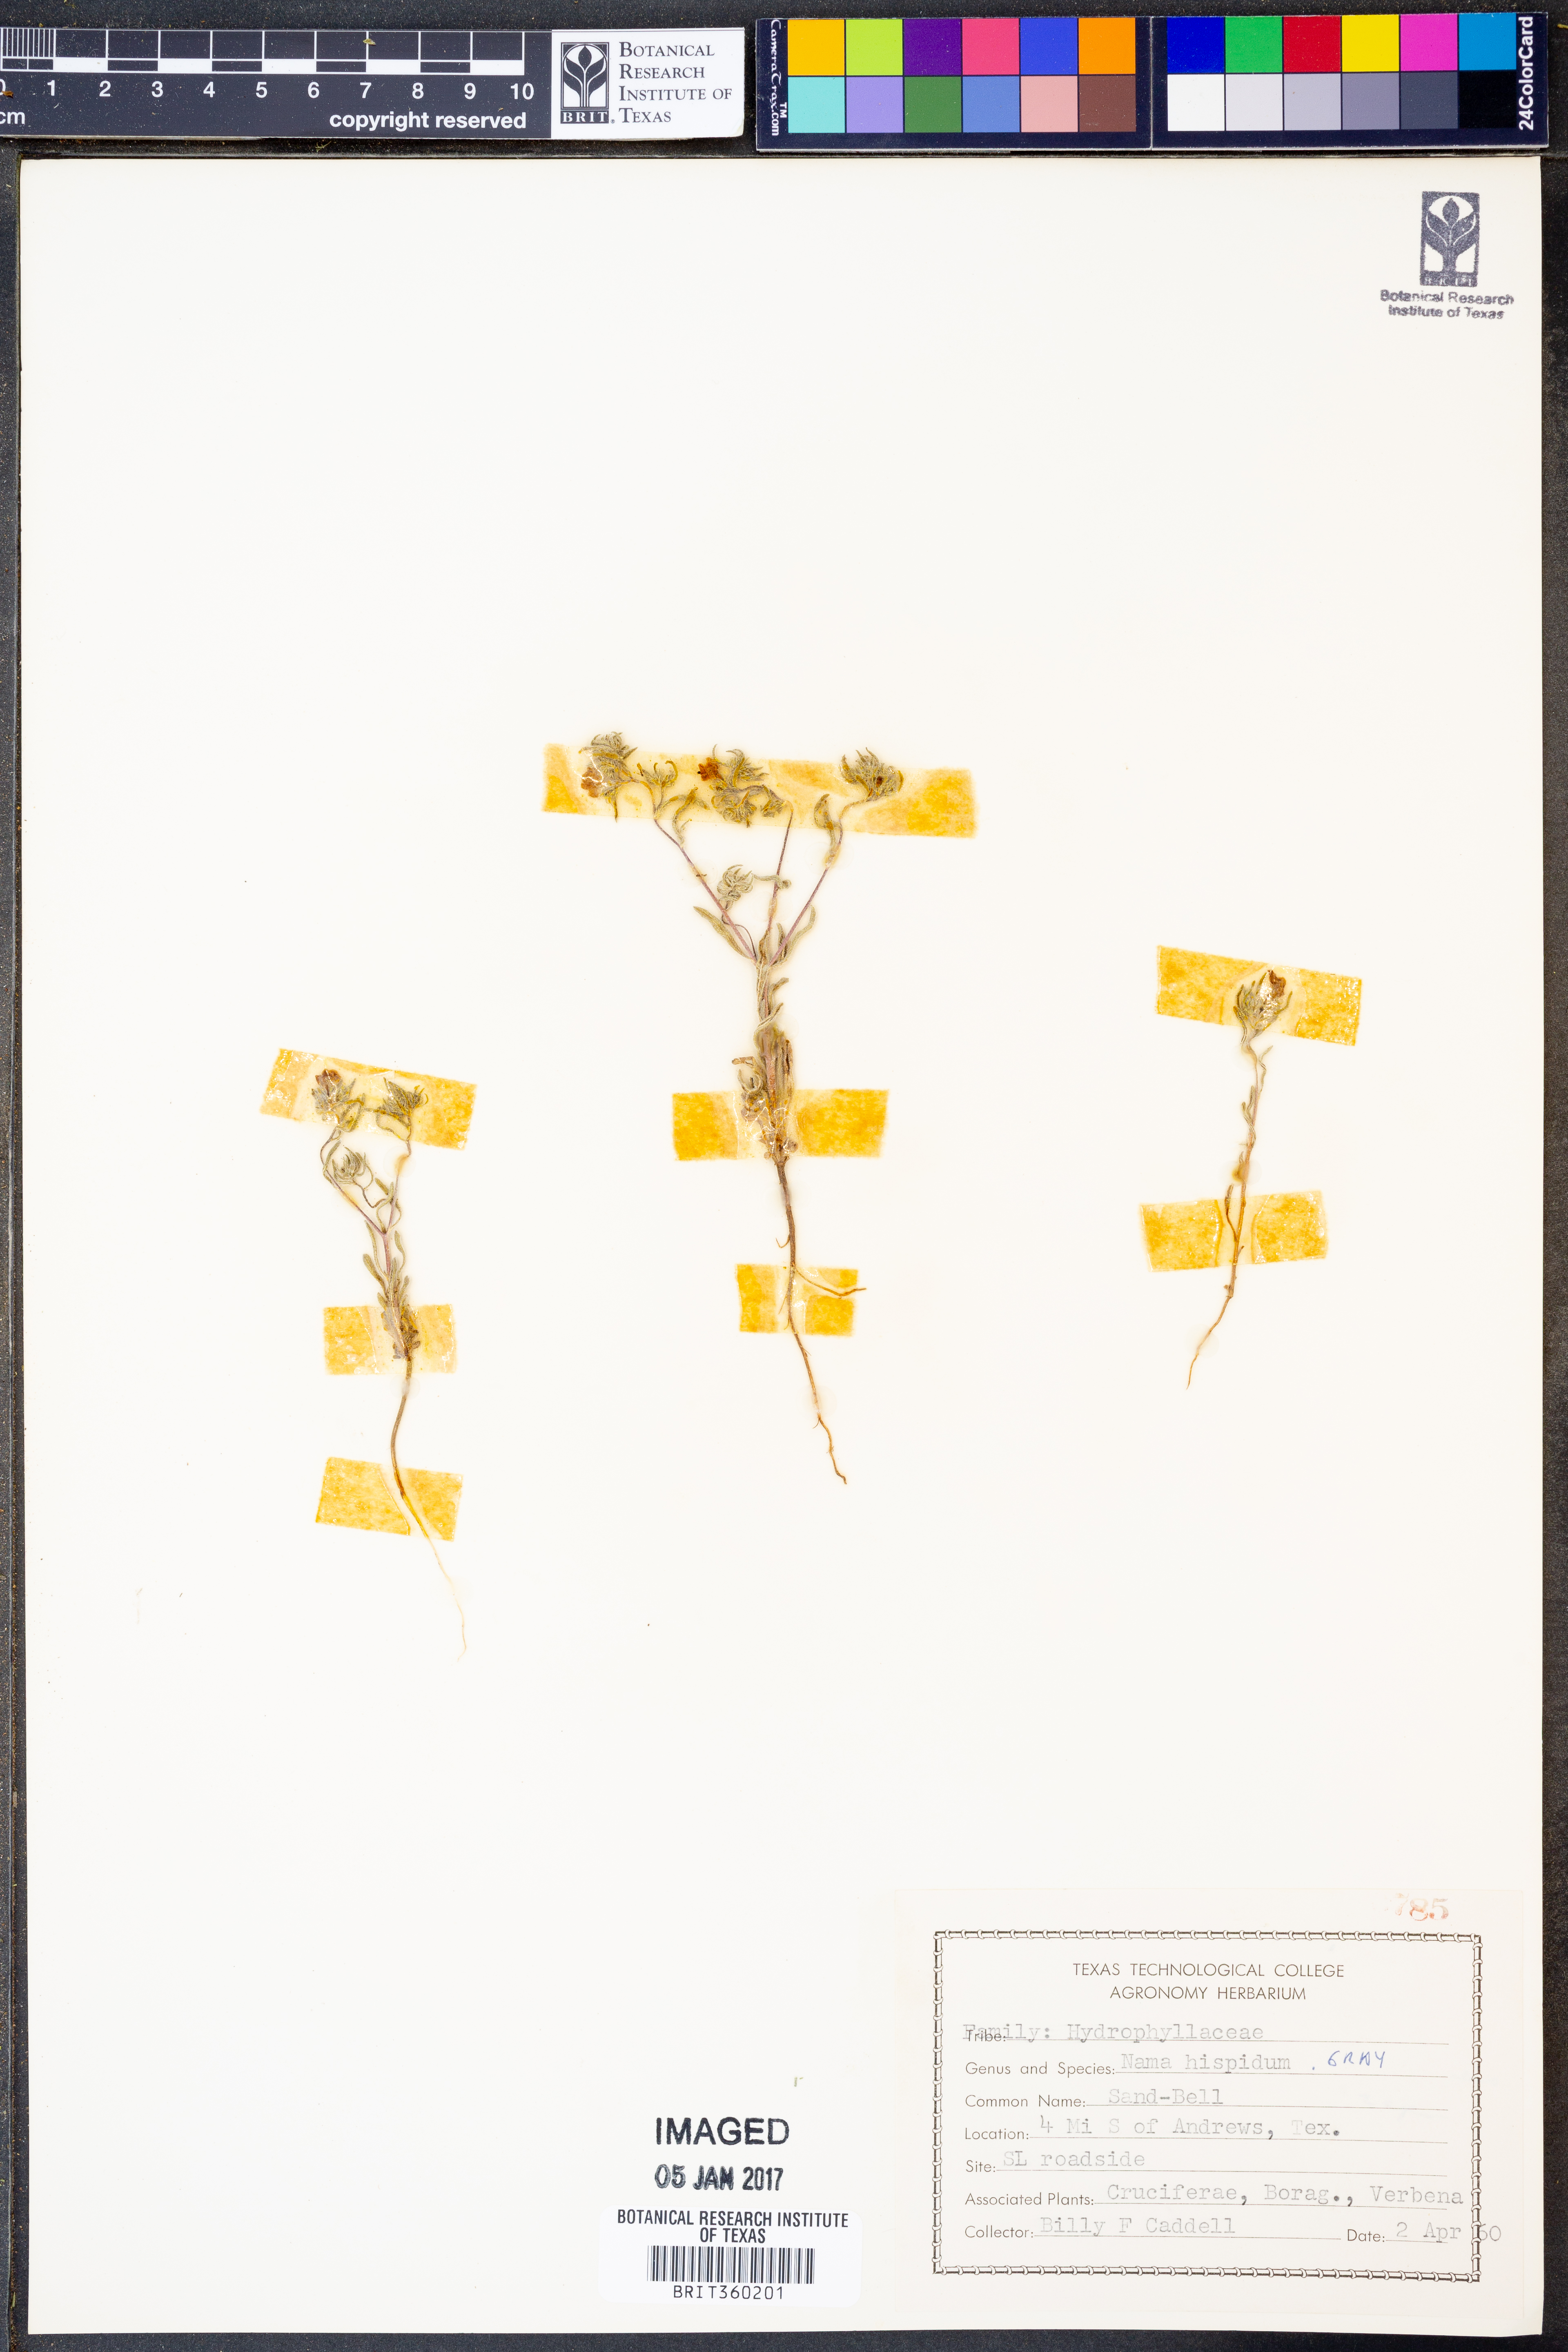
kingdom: Plantae
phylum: Tracheophyta
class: Magnoliopsida
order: Boraginales
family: Namaceae
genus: Nama
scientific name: Nama hispida
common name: Bristly nama
